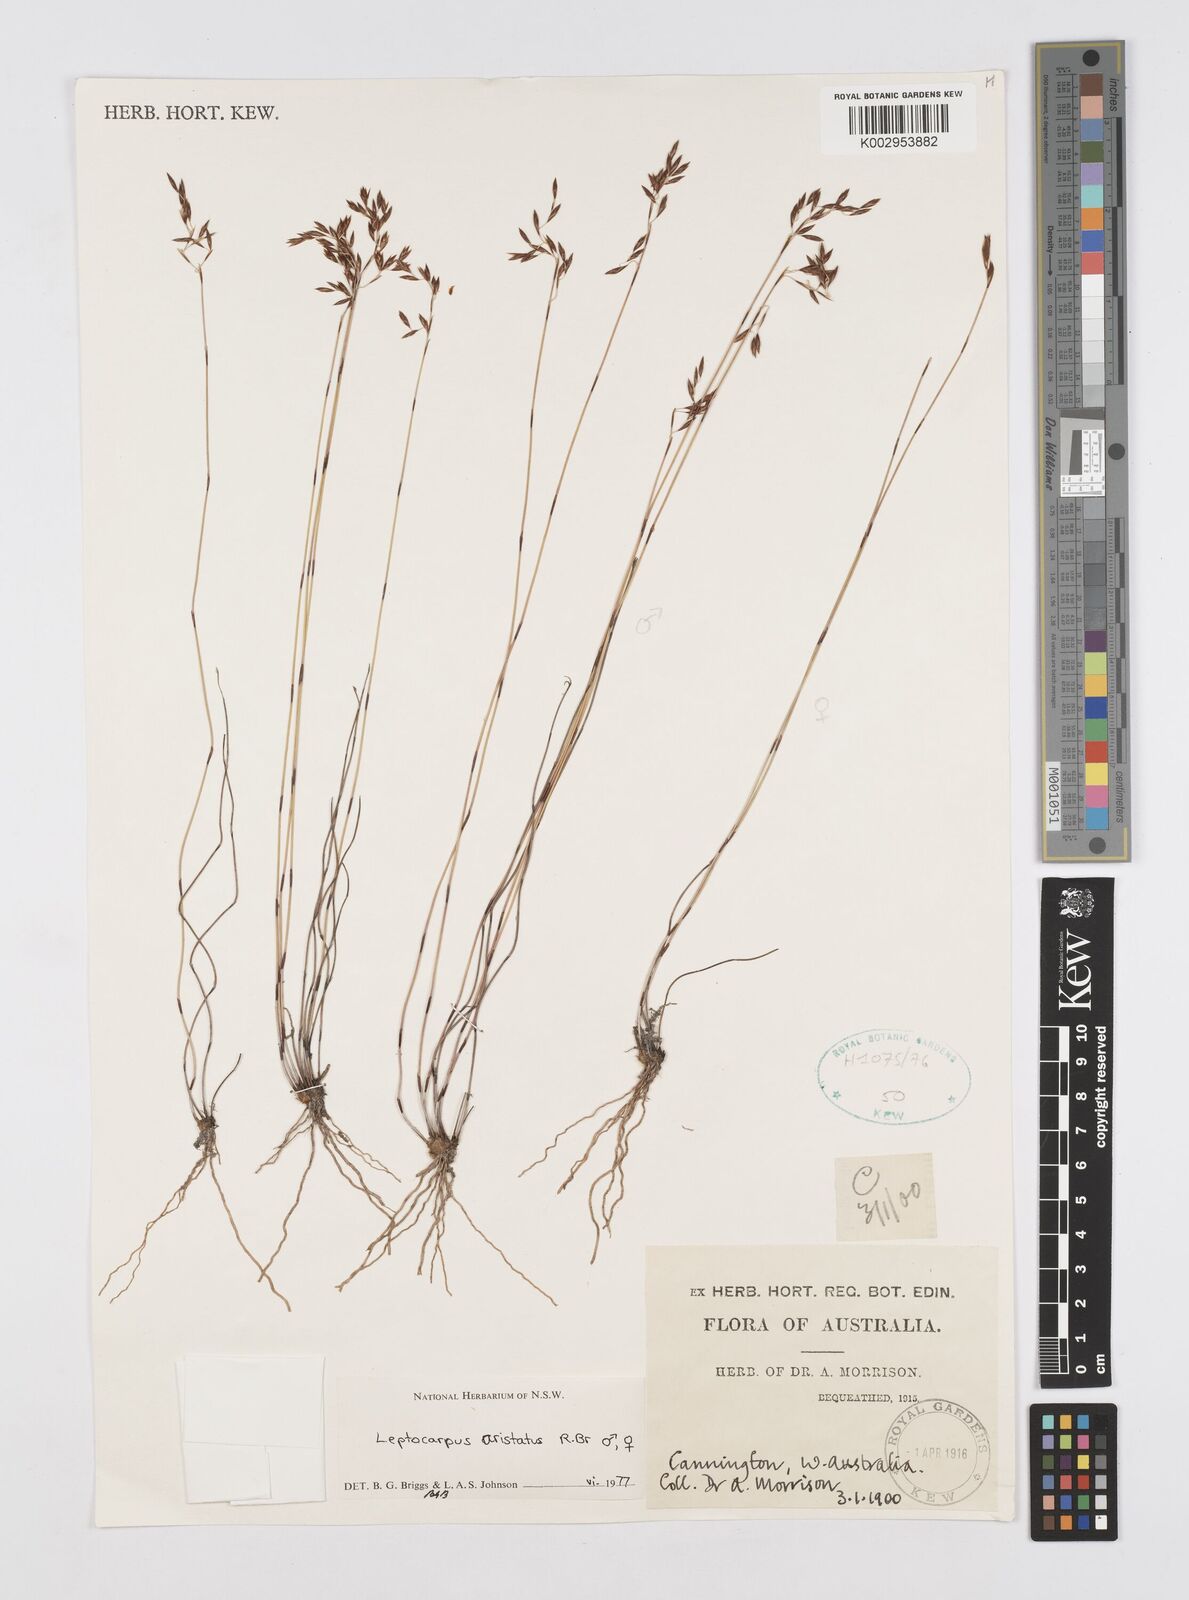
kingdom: Plantae
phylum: Tracheophyta
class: Liliopsida
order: Poales
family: Restionaceae
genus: Chaetanthus
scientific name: Chaetanthus aristatus
